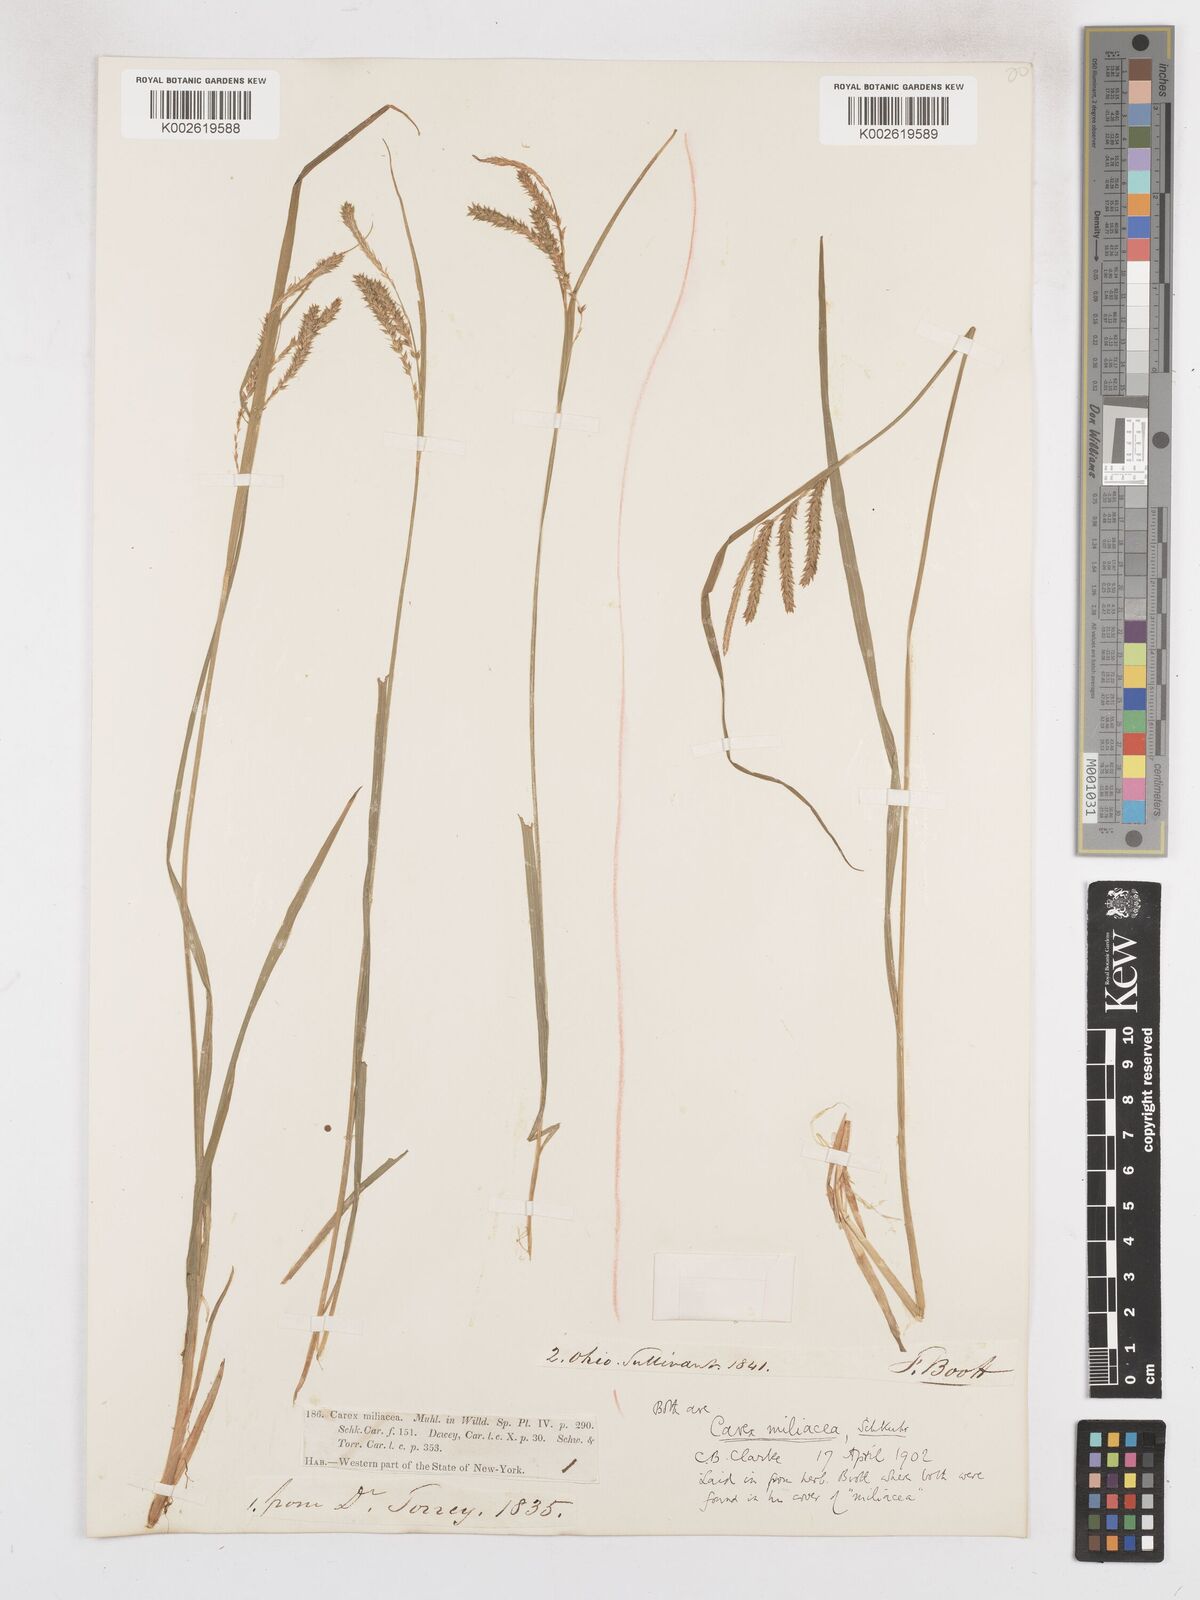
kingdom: Plantae
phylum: Tracheophyta
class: Liliopsida
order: Poales
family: Cyperaceae
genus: Carex
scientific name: Carex prasina
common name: Drooping sedge
